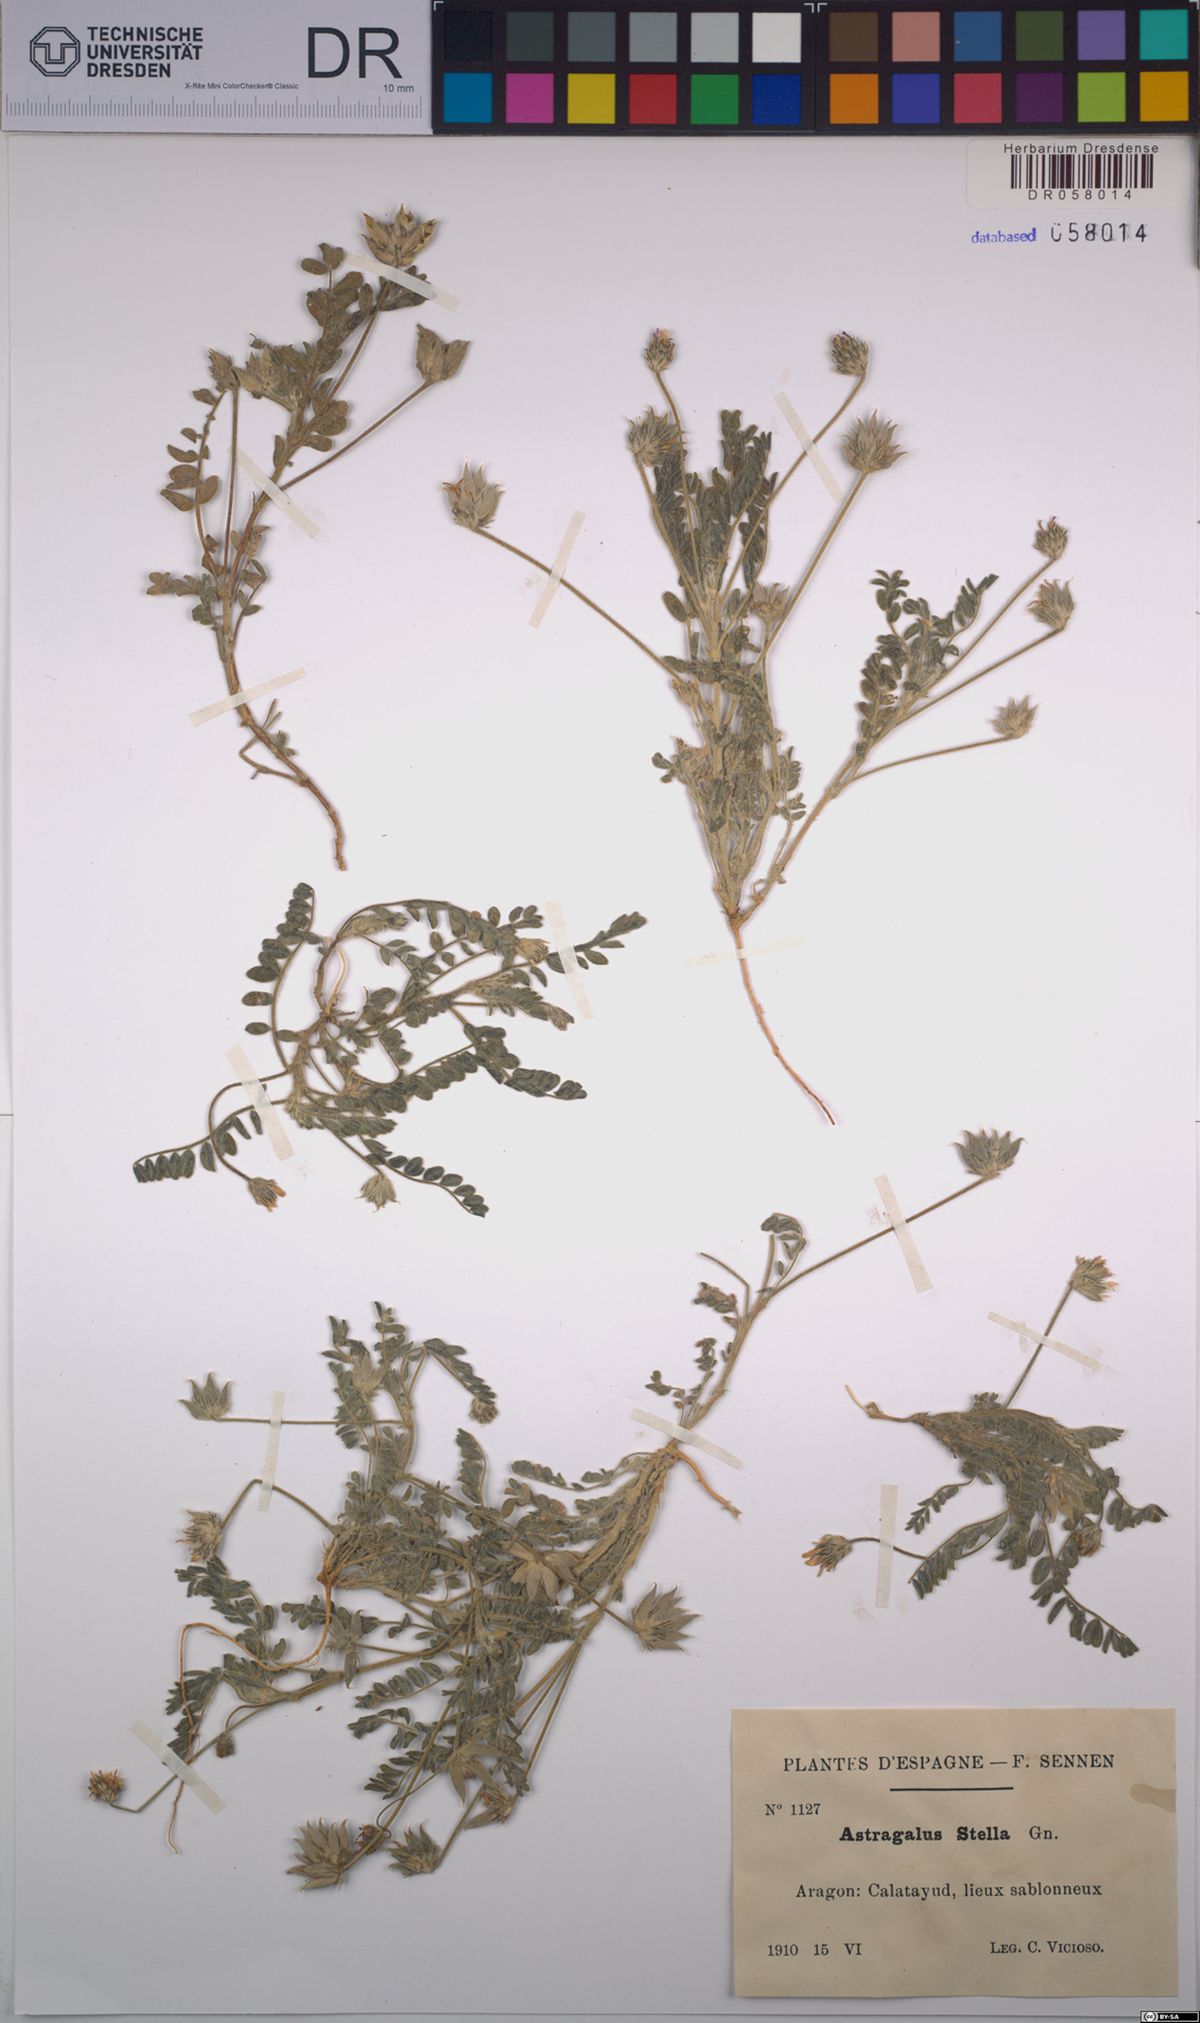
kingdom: Plantae
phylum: Tracheophyta
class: Magnoliopsida
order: Fabales
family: Fabaceae
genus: Astragalus
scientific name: Astragalus stella
